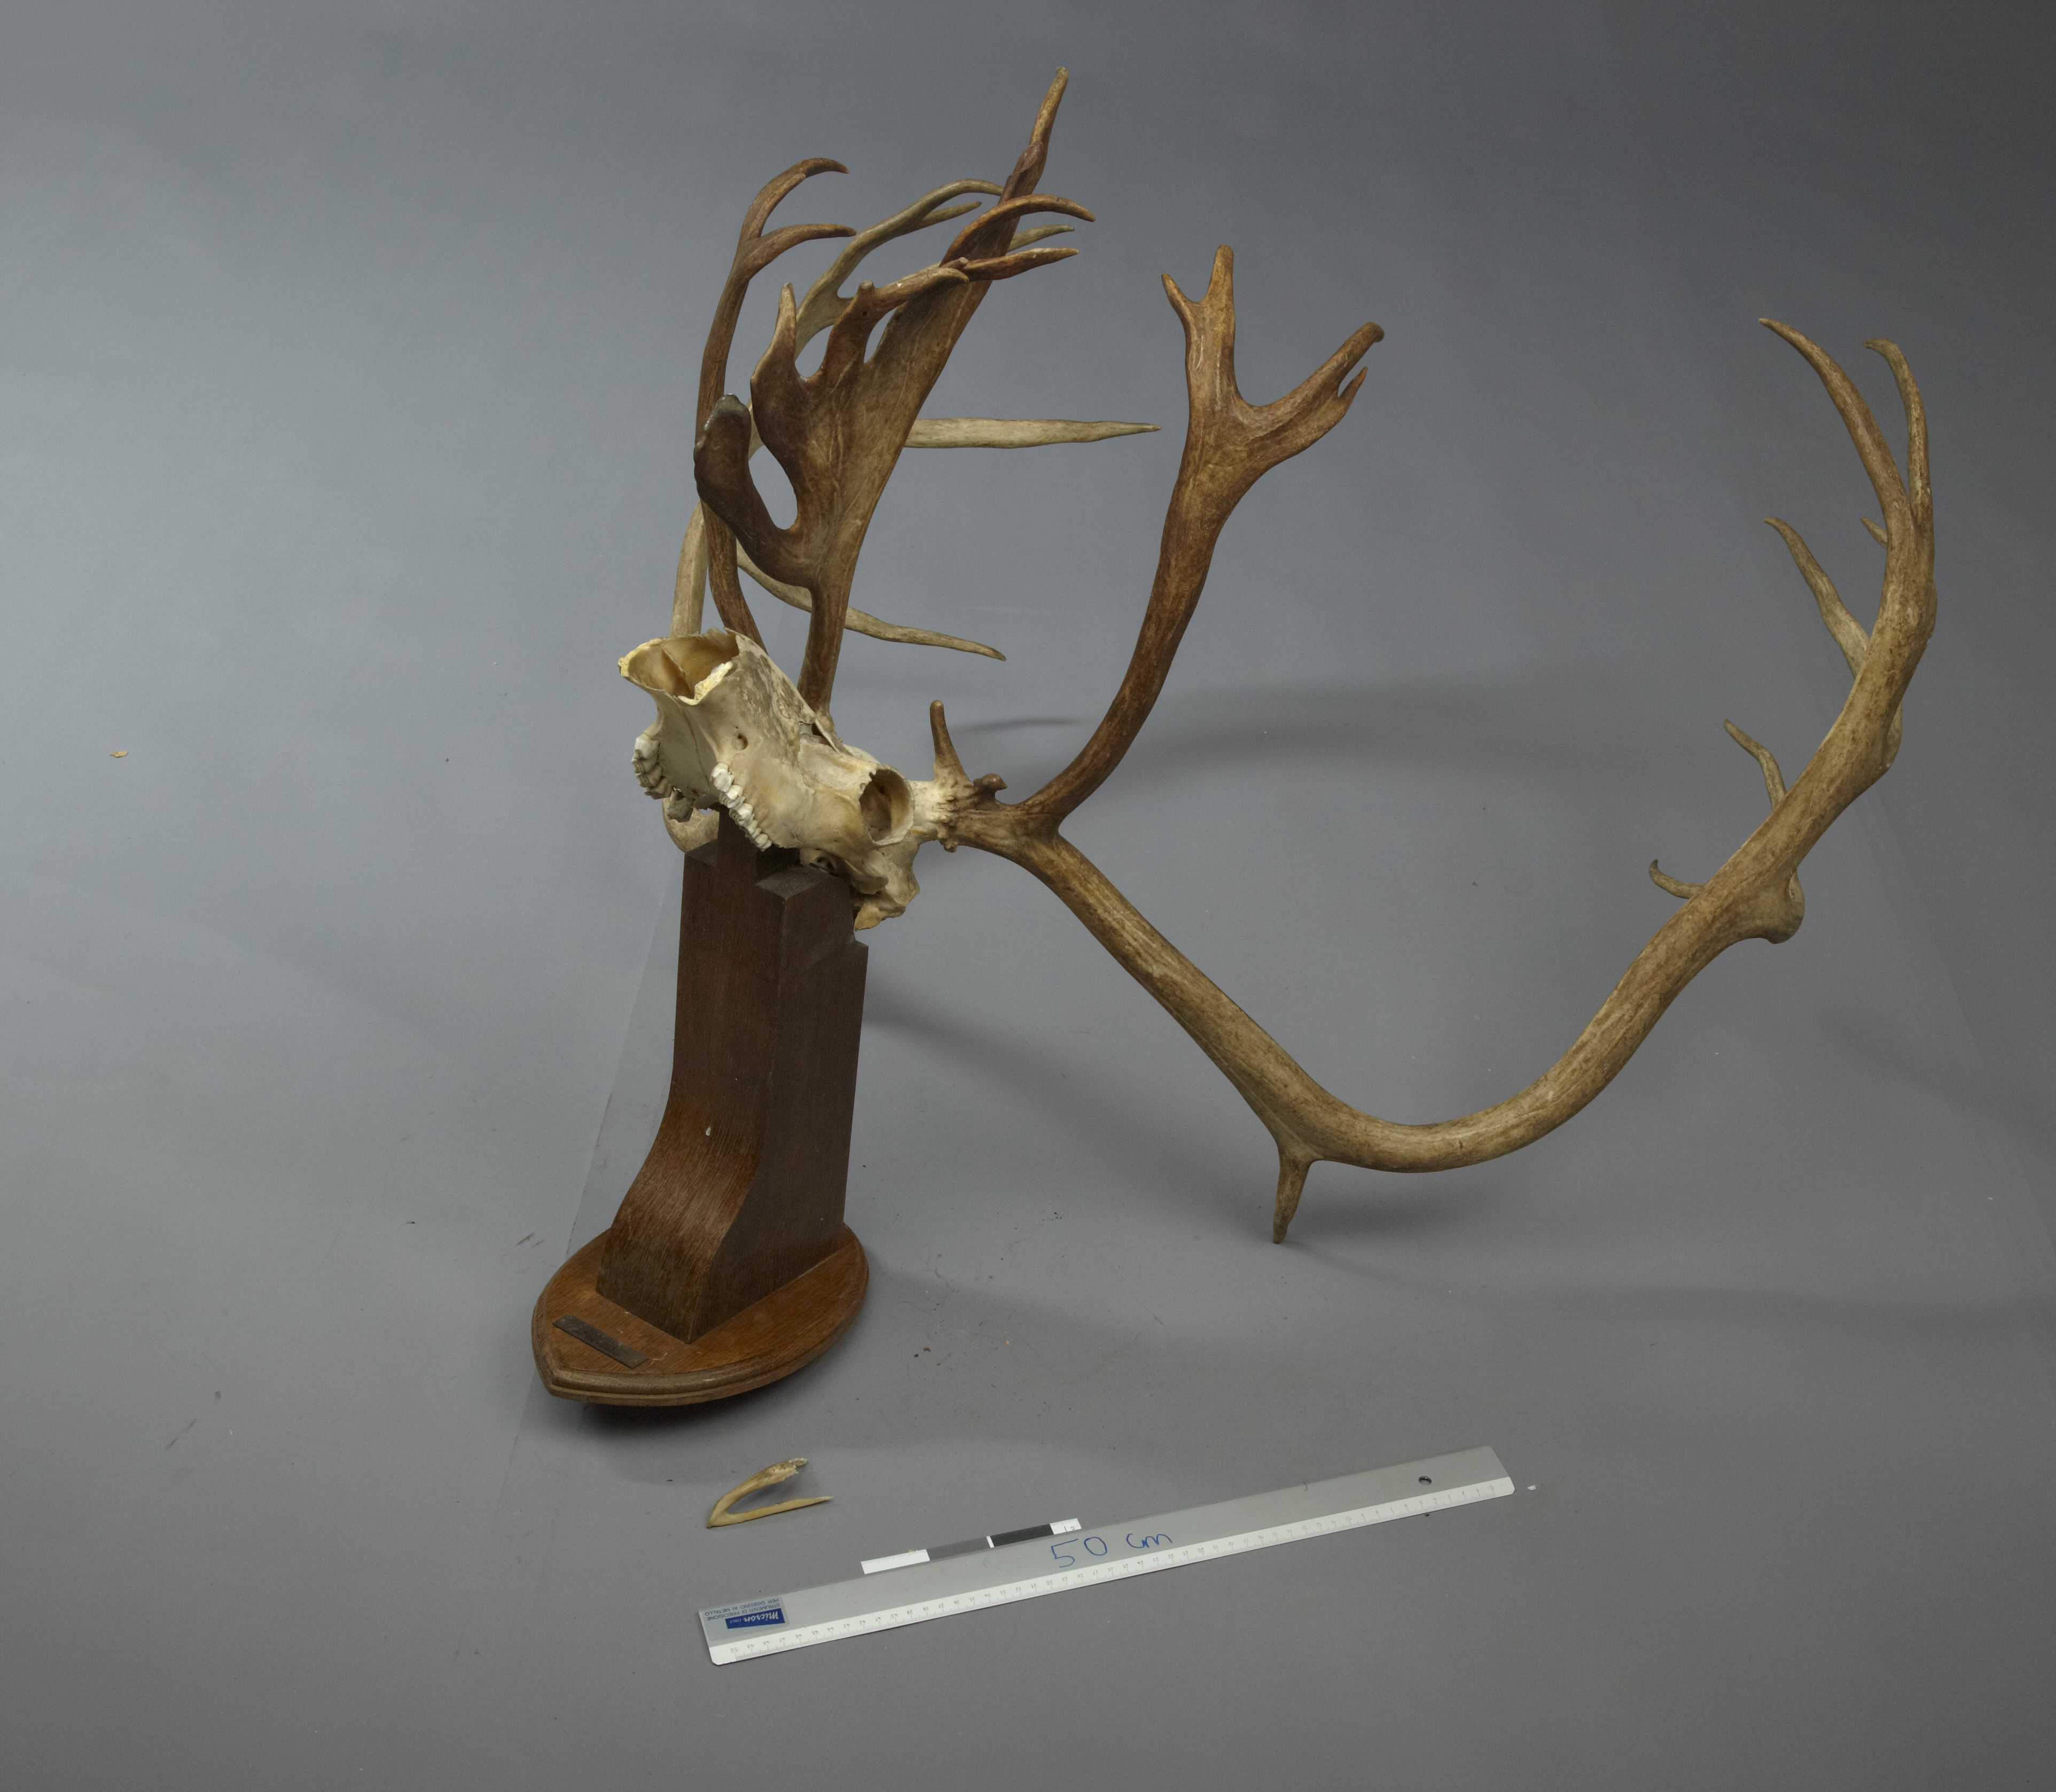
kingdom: Animalia
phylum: Chordata
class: Mammalia
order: Artiodactyla
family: Cervidae
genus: Rangifer
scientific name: Rangifer tarandus
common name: Reindeer
